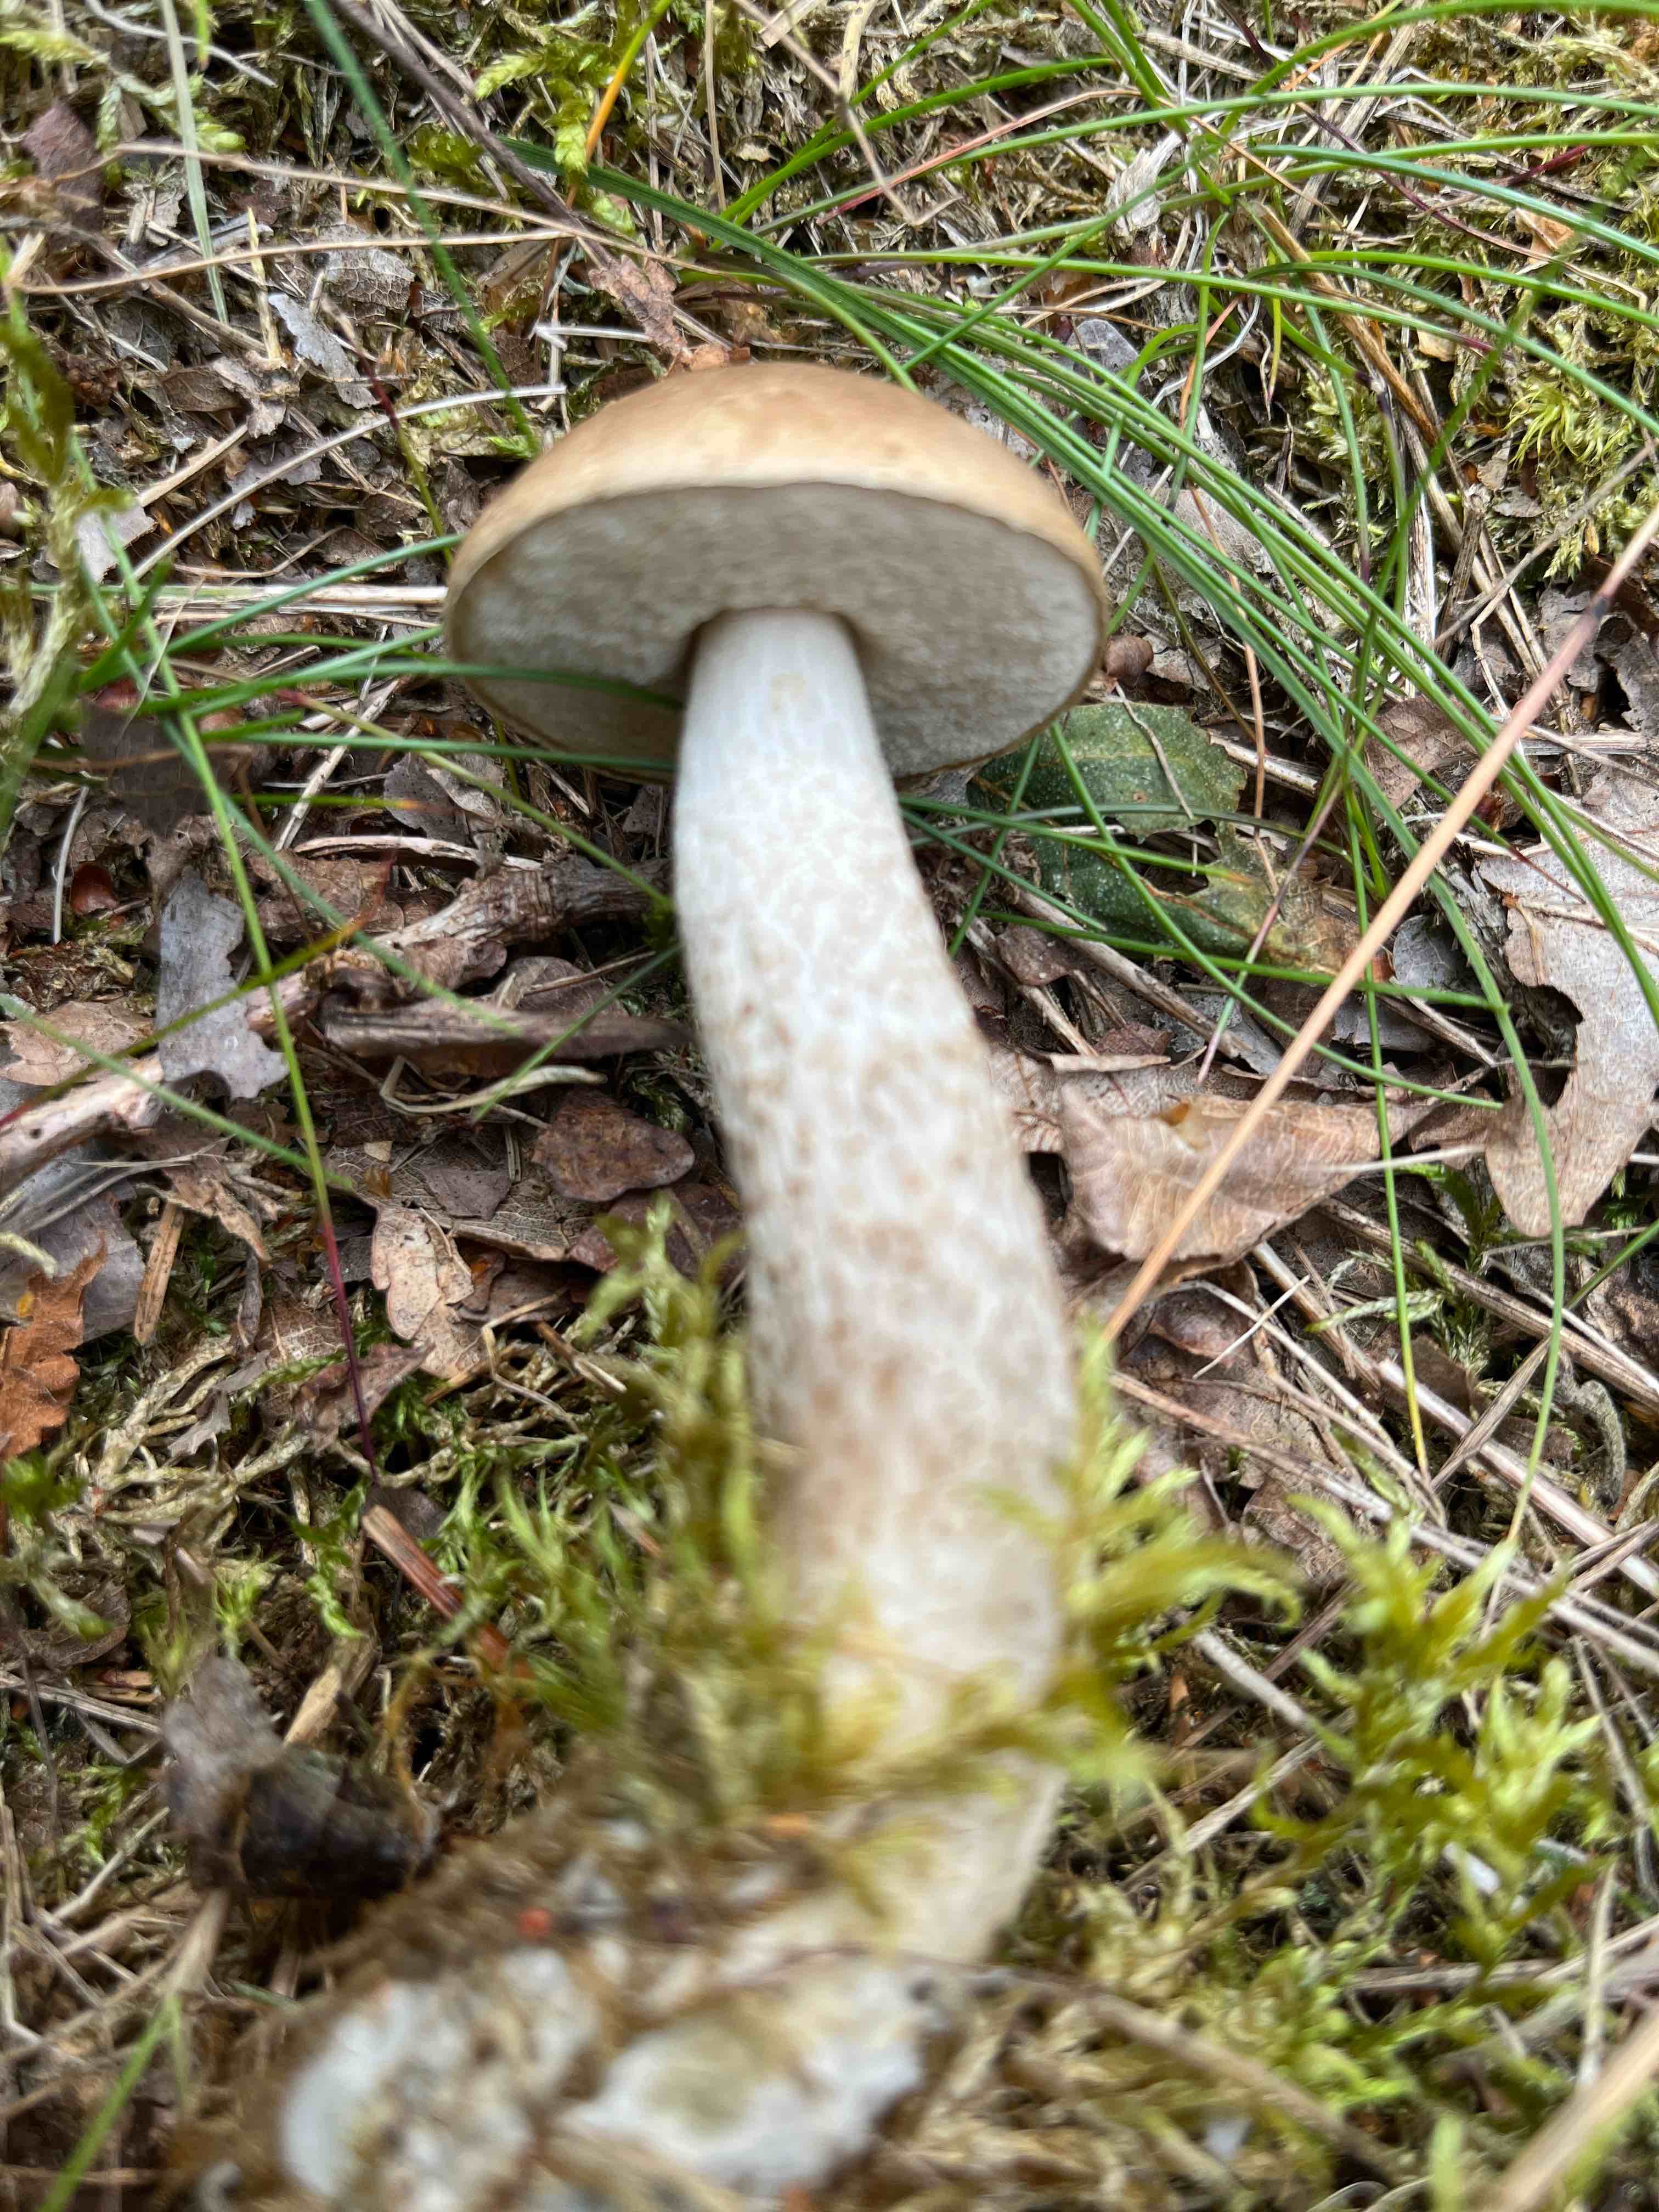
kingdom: Fungi
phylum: Basidiomycota
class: Agaricomycetes
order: Boletales
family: Boletaceae
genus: Leccinum
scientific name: Leccinum
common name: skælrørhat
